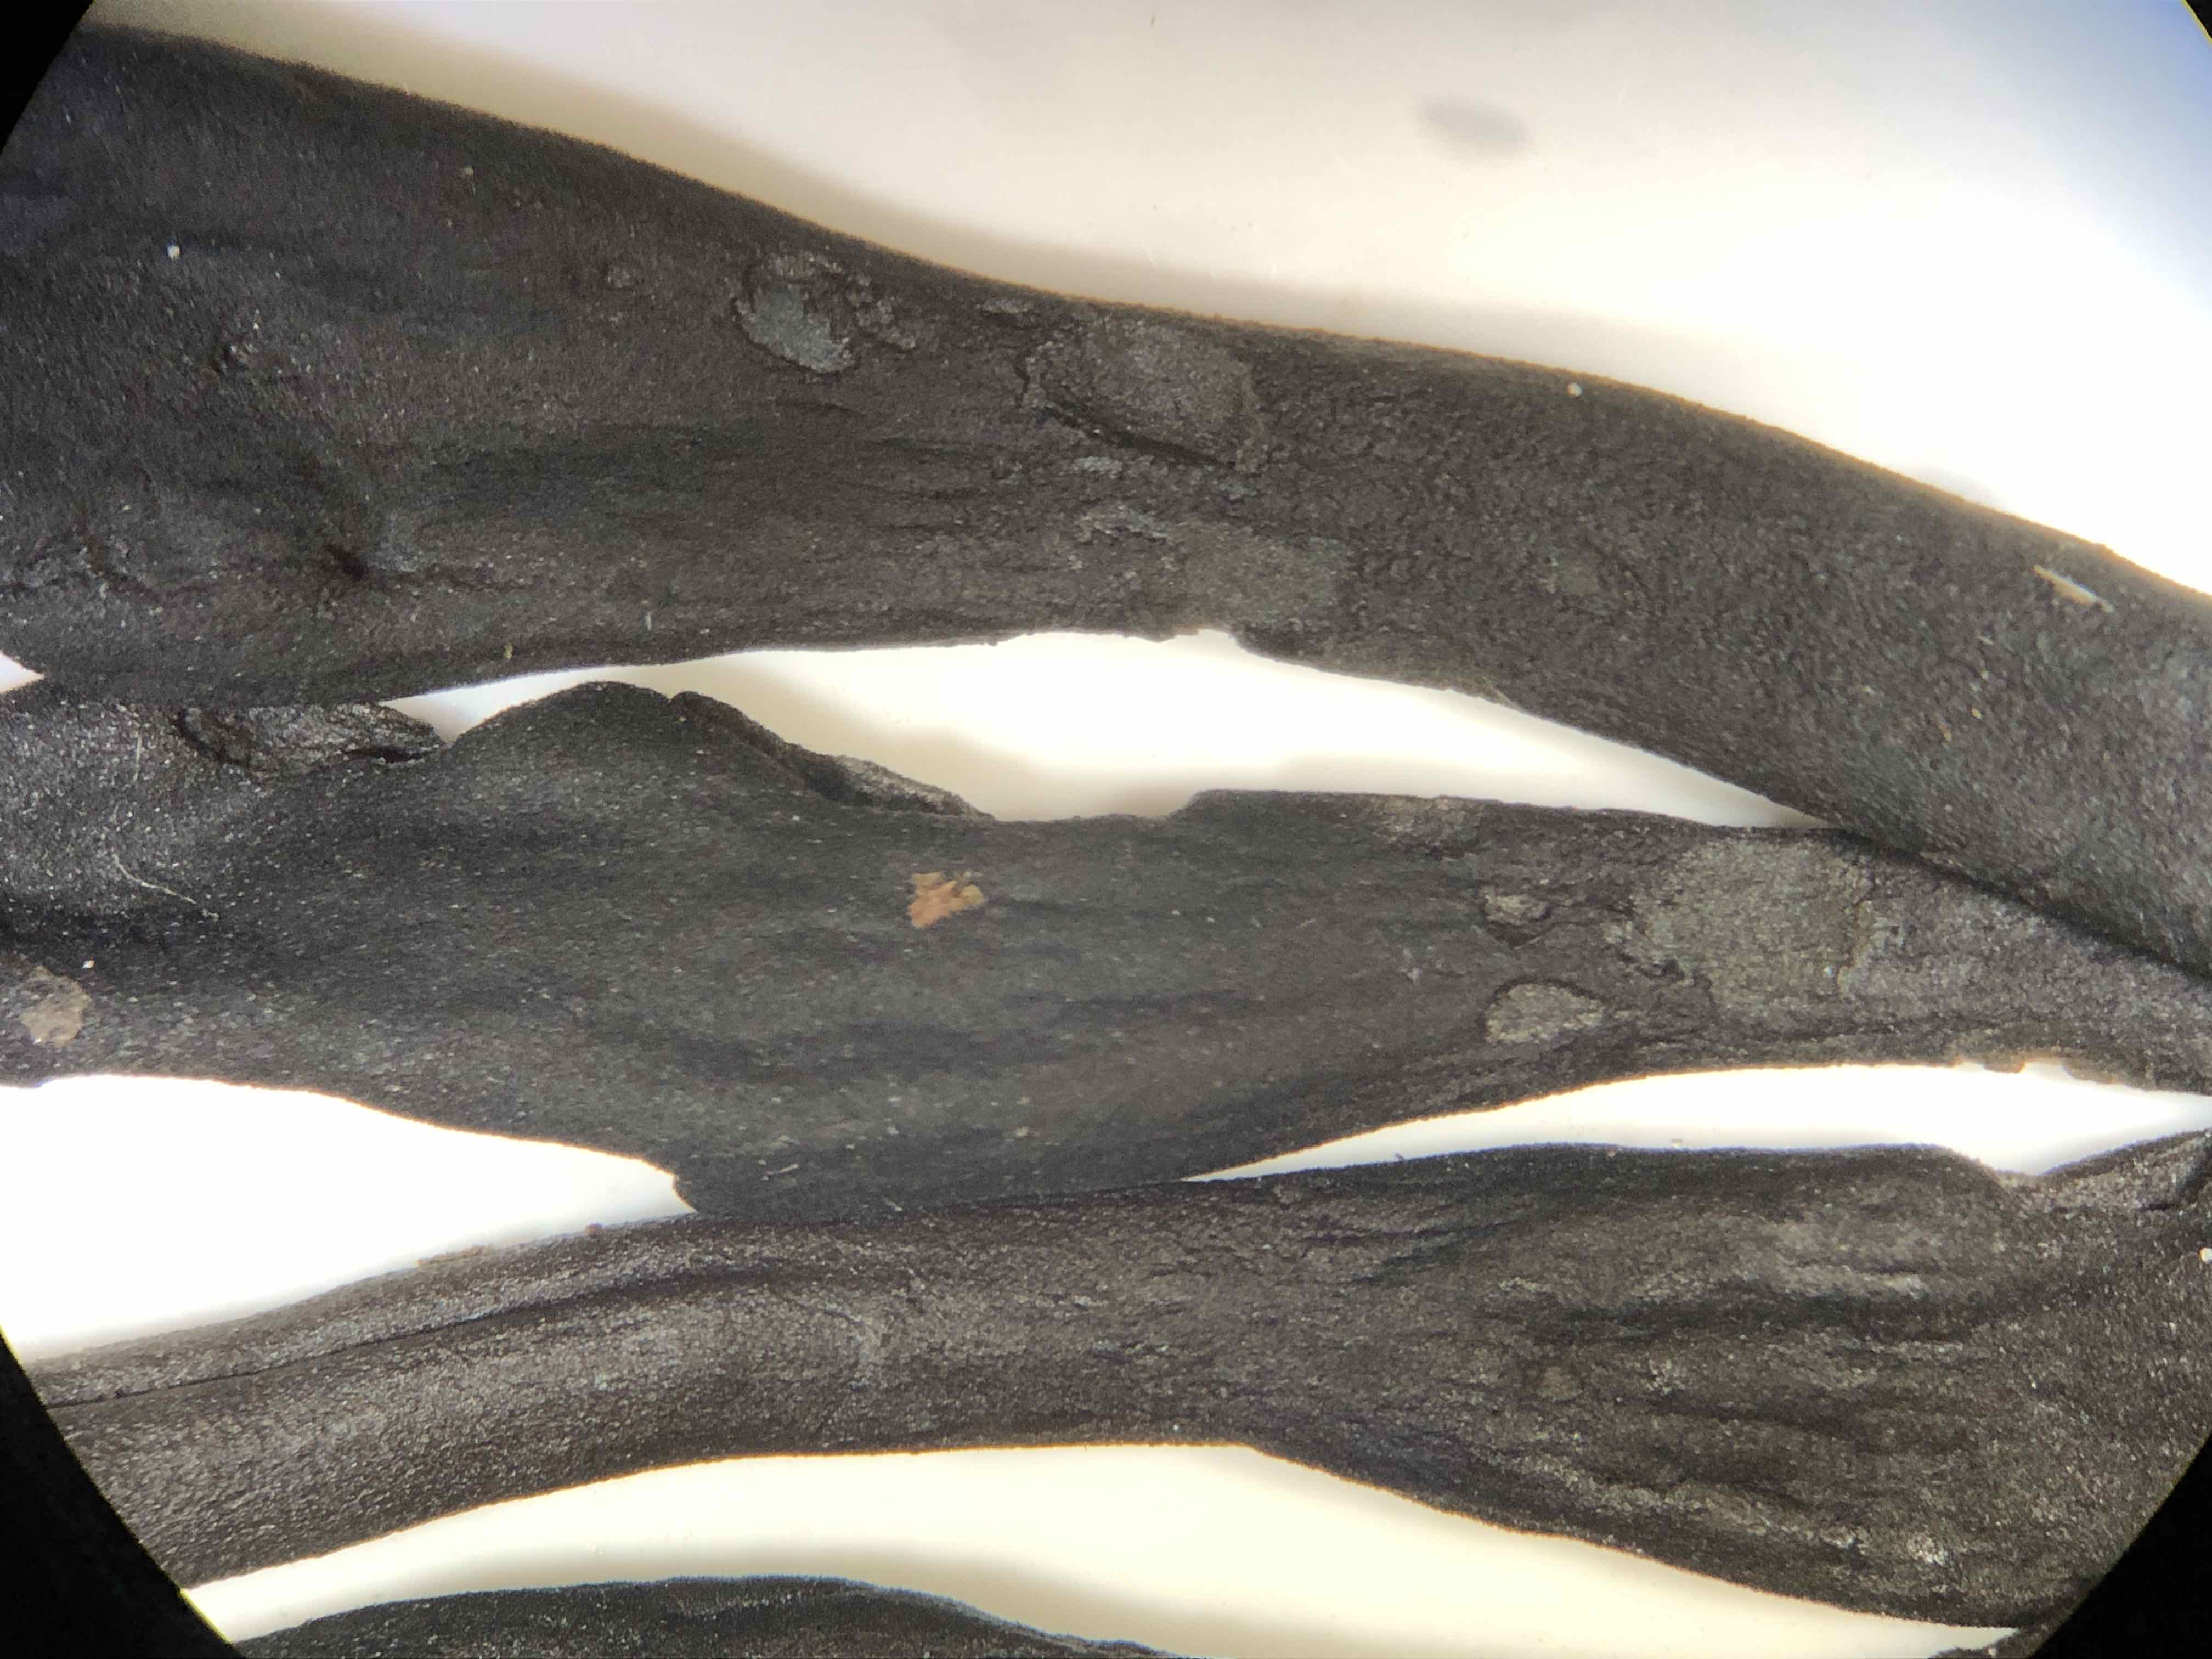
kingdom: Fungi
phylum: Ascomycota
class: Geoglossomycetes
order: Geoglossales
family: Geoglossaceae
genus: Geoglossum
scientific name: Geoglossum cookeianum
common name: bred jordtunge
